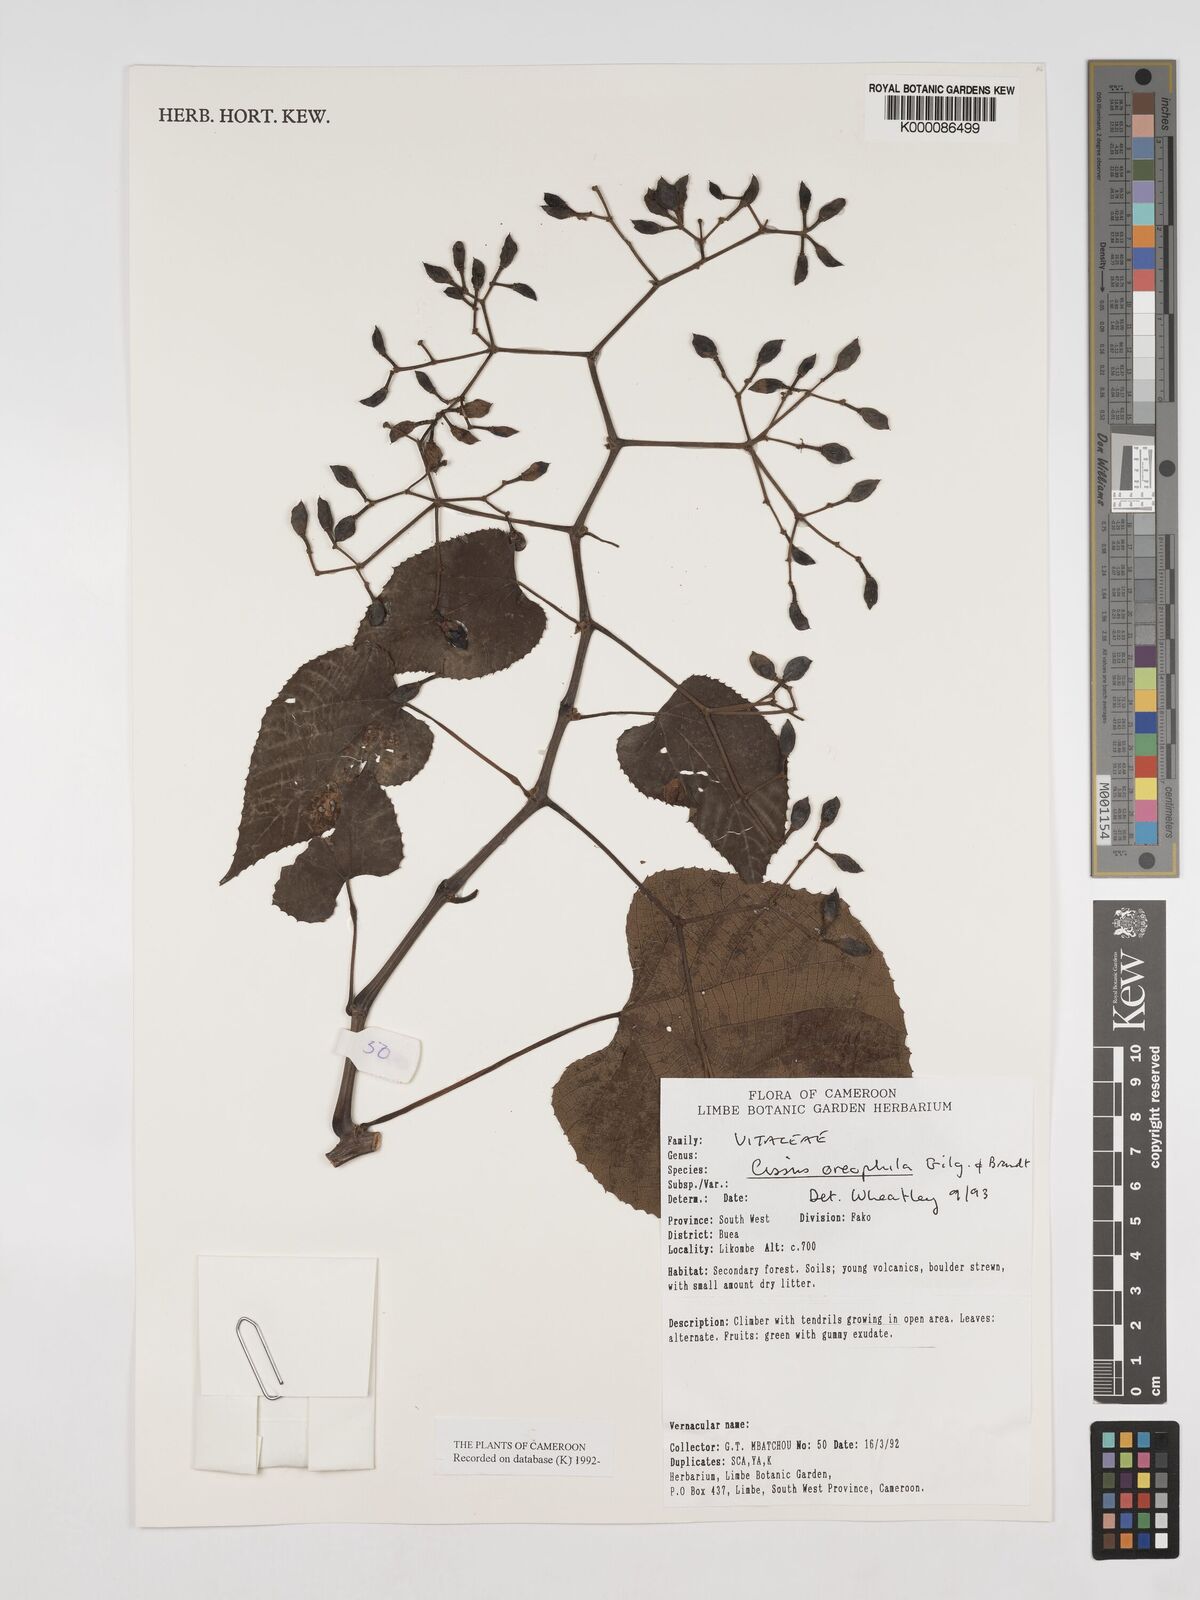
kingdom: Plantae
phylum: Tracheophyta
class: Magnoliopsida
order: Vitales
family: Vitaceae
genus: Cissus
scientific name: Cissus oreophila
